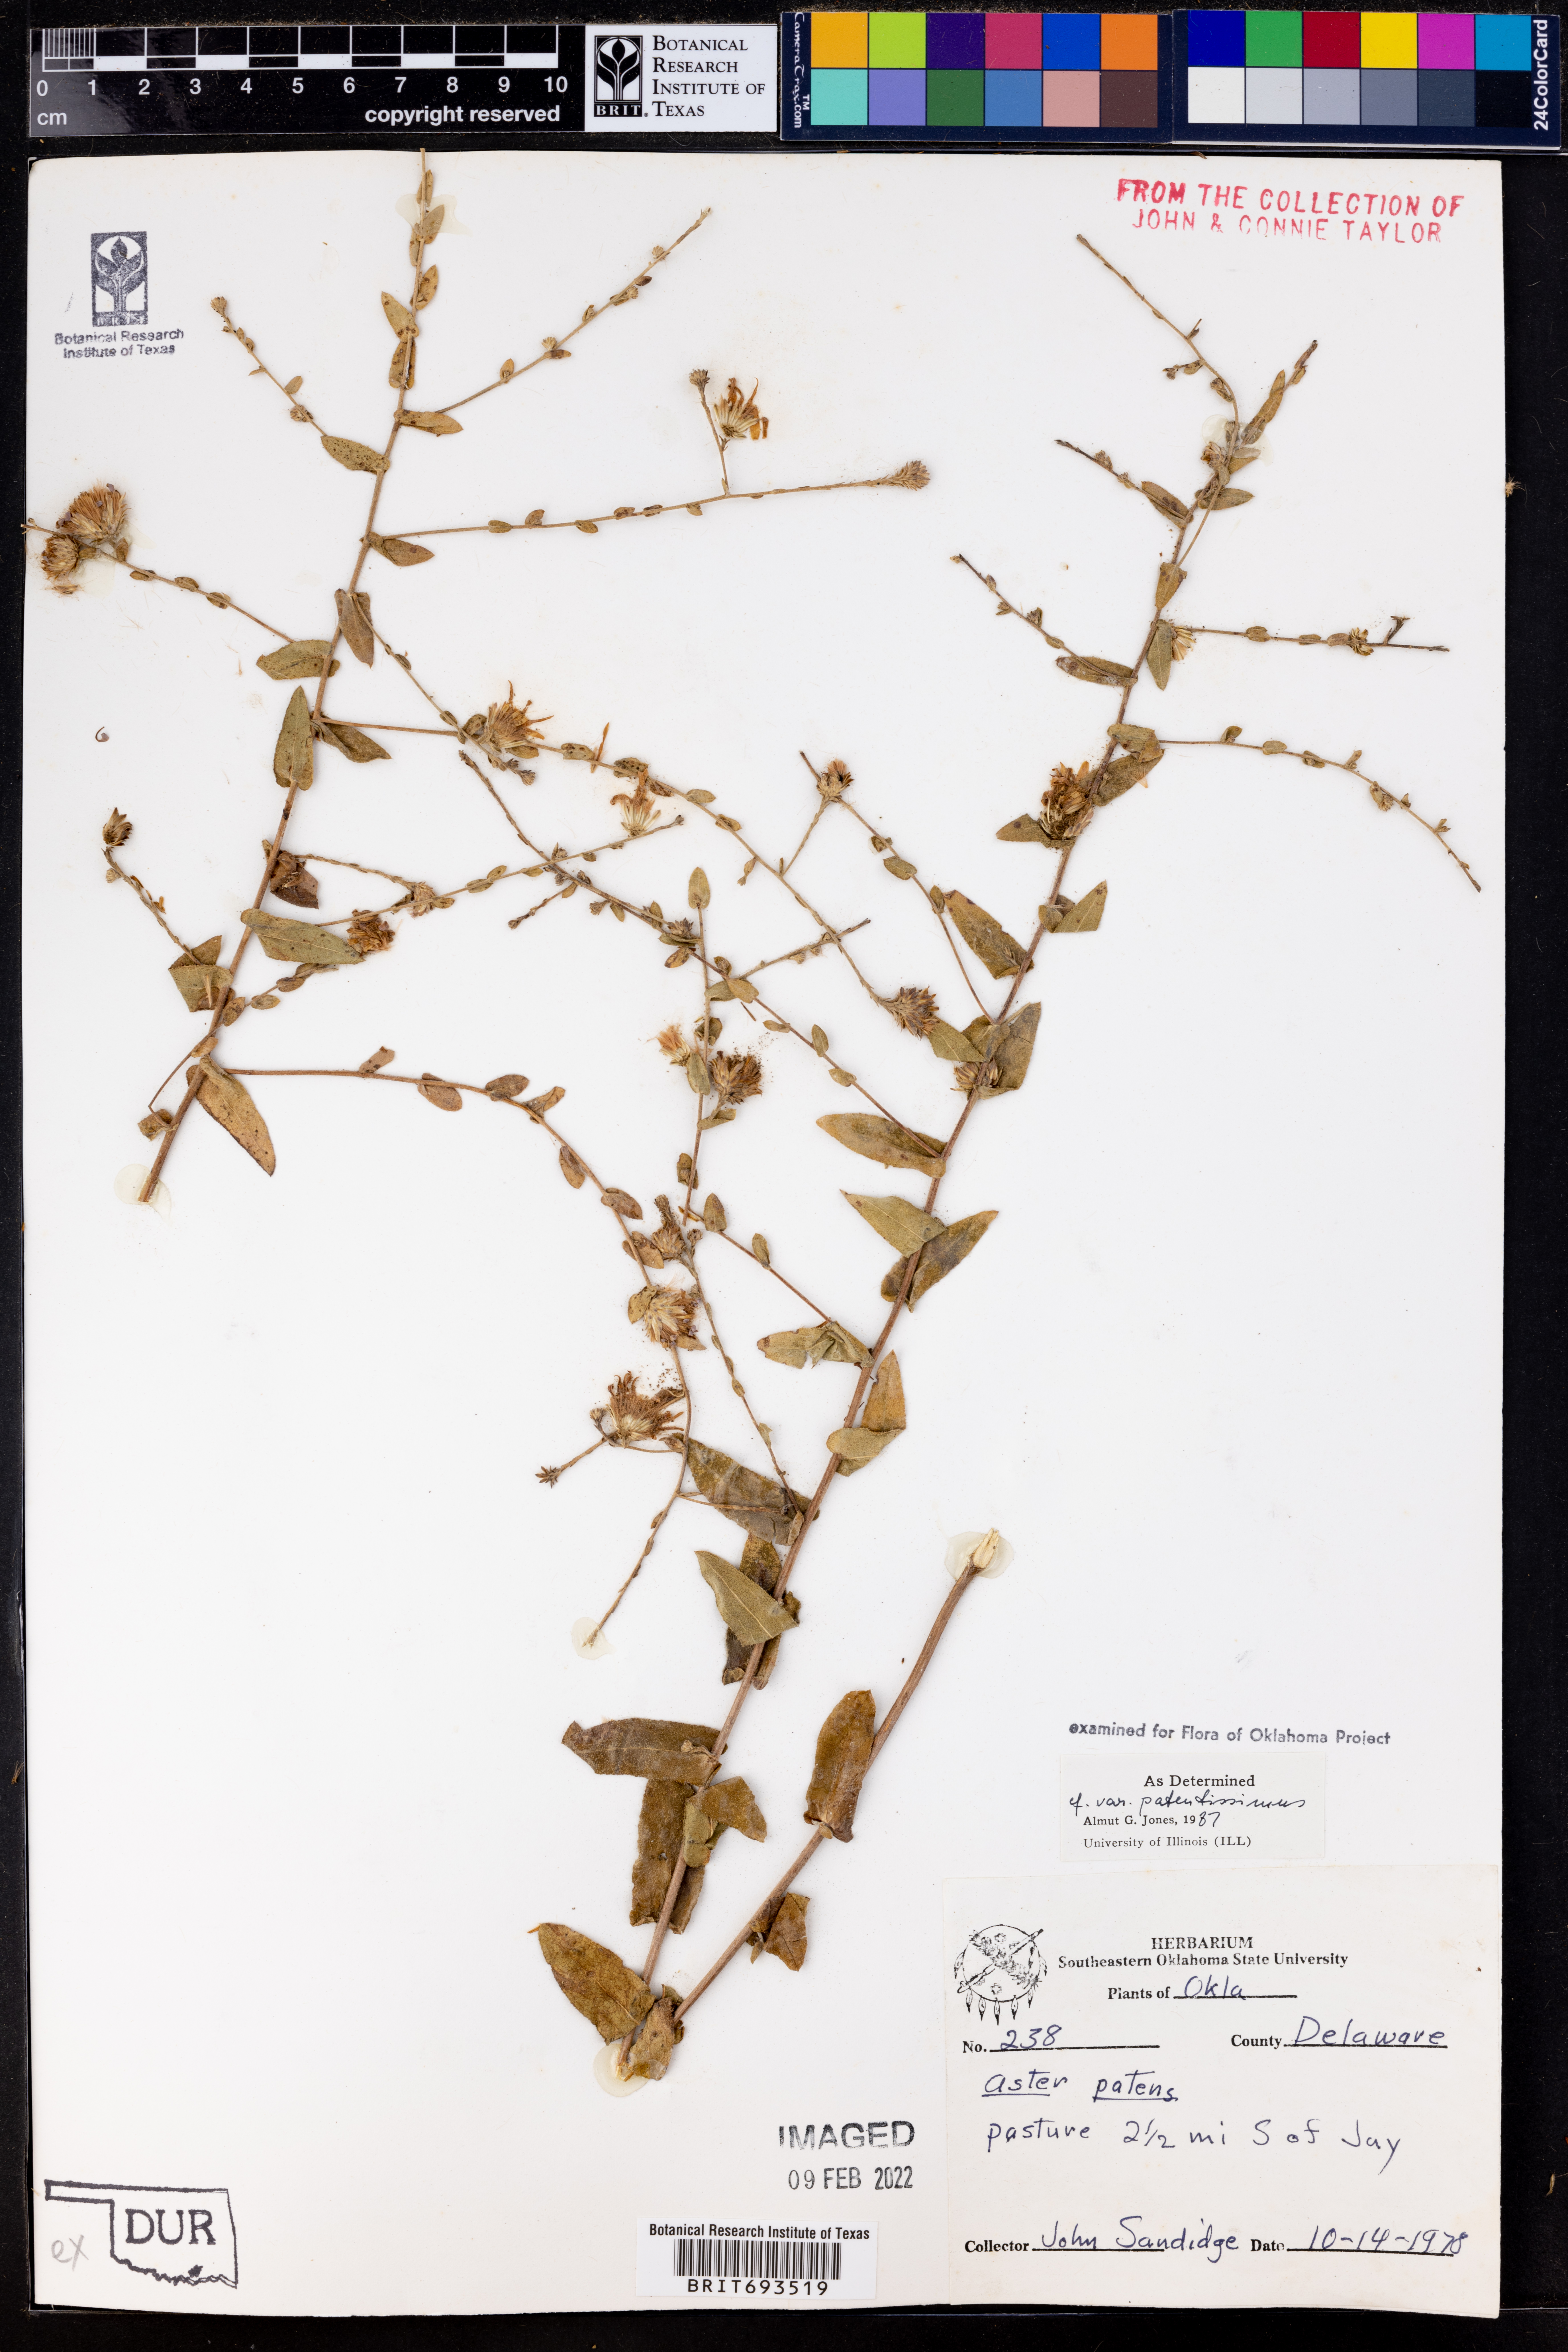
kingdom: Plantae
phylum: Tracheophyta
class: Magnoliopsida
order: Asterales
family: Asteraceae
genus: Symphyotrichum
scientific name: Symphyotrichum patens
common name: Late purple aster
